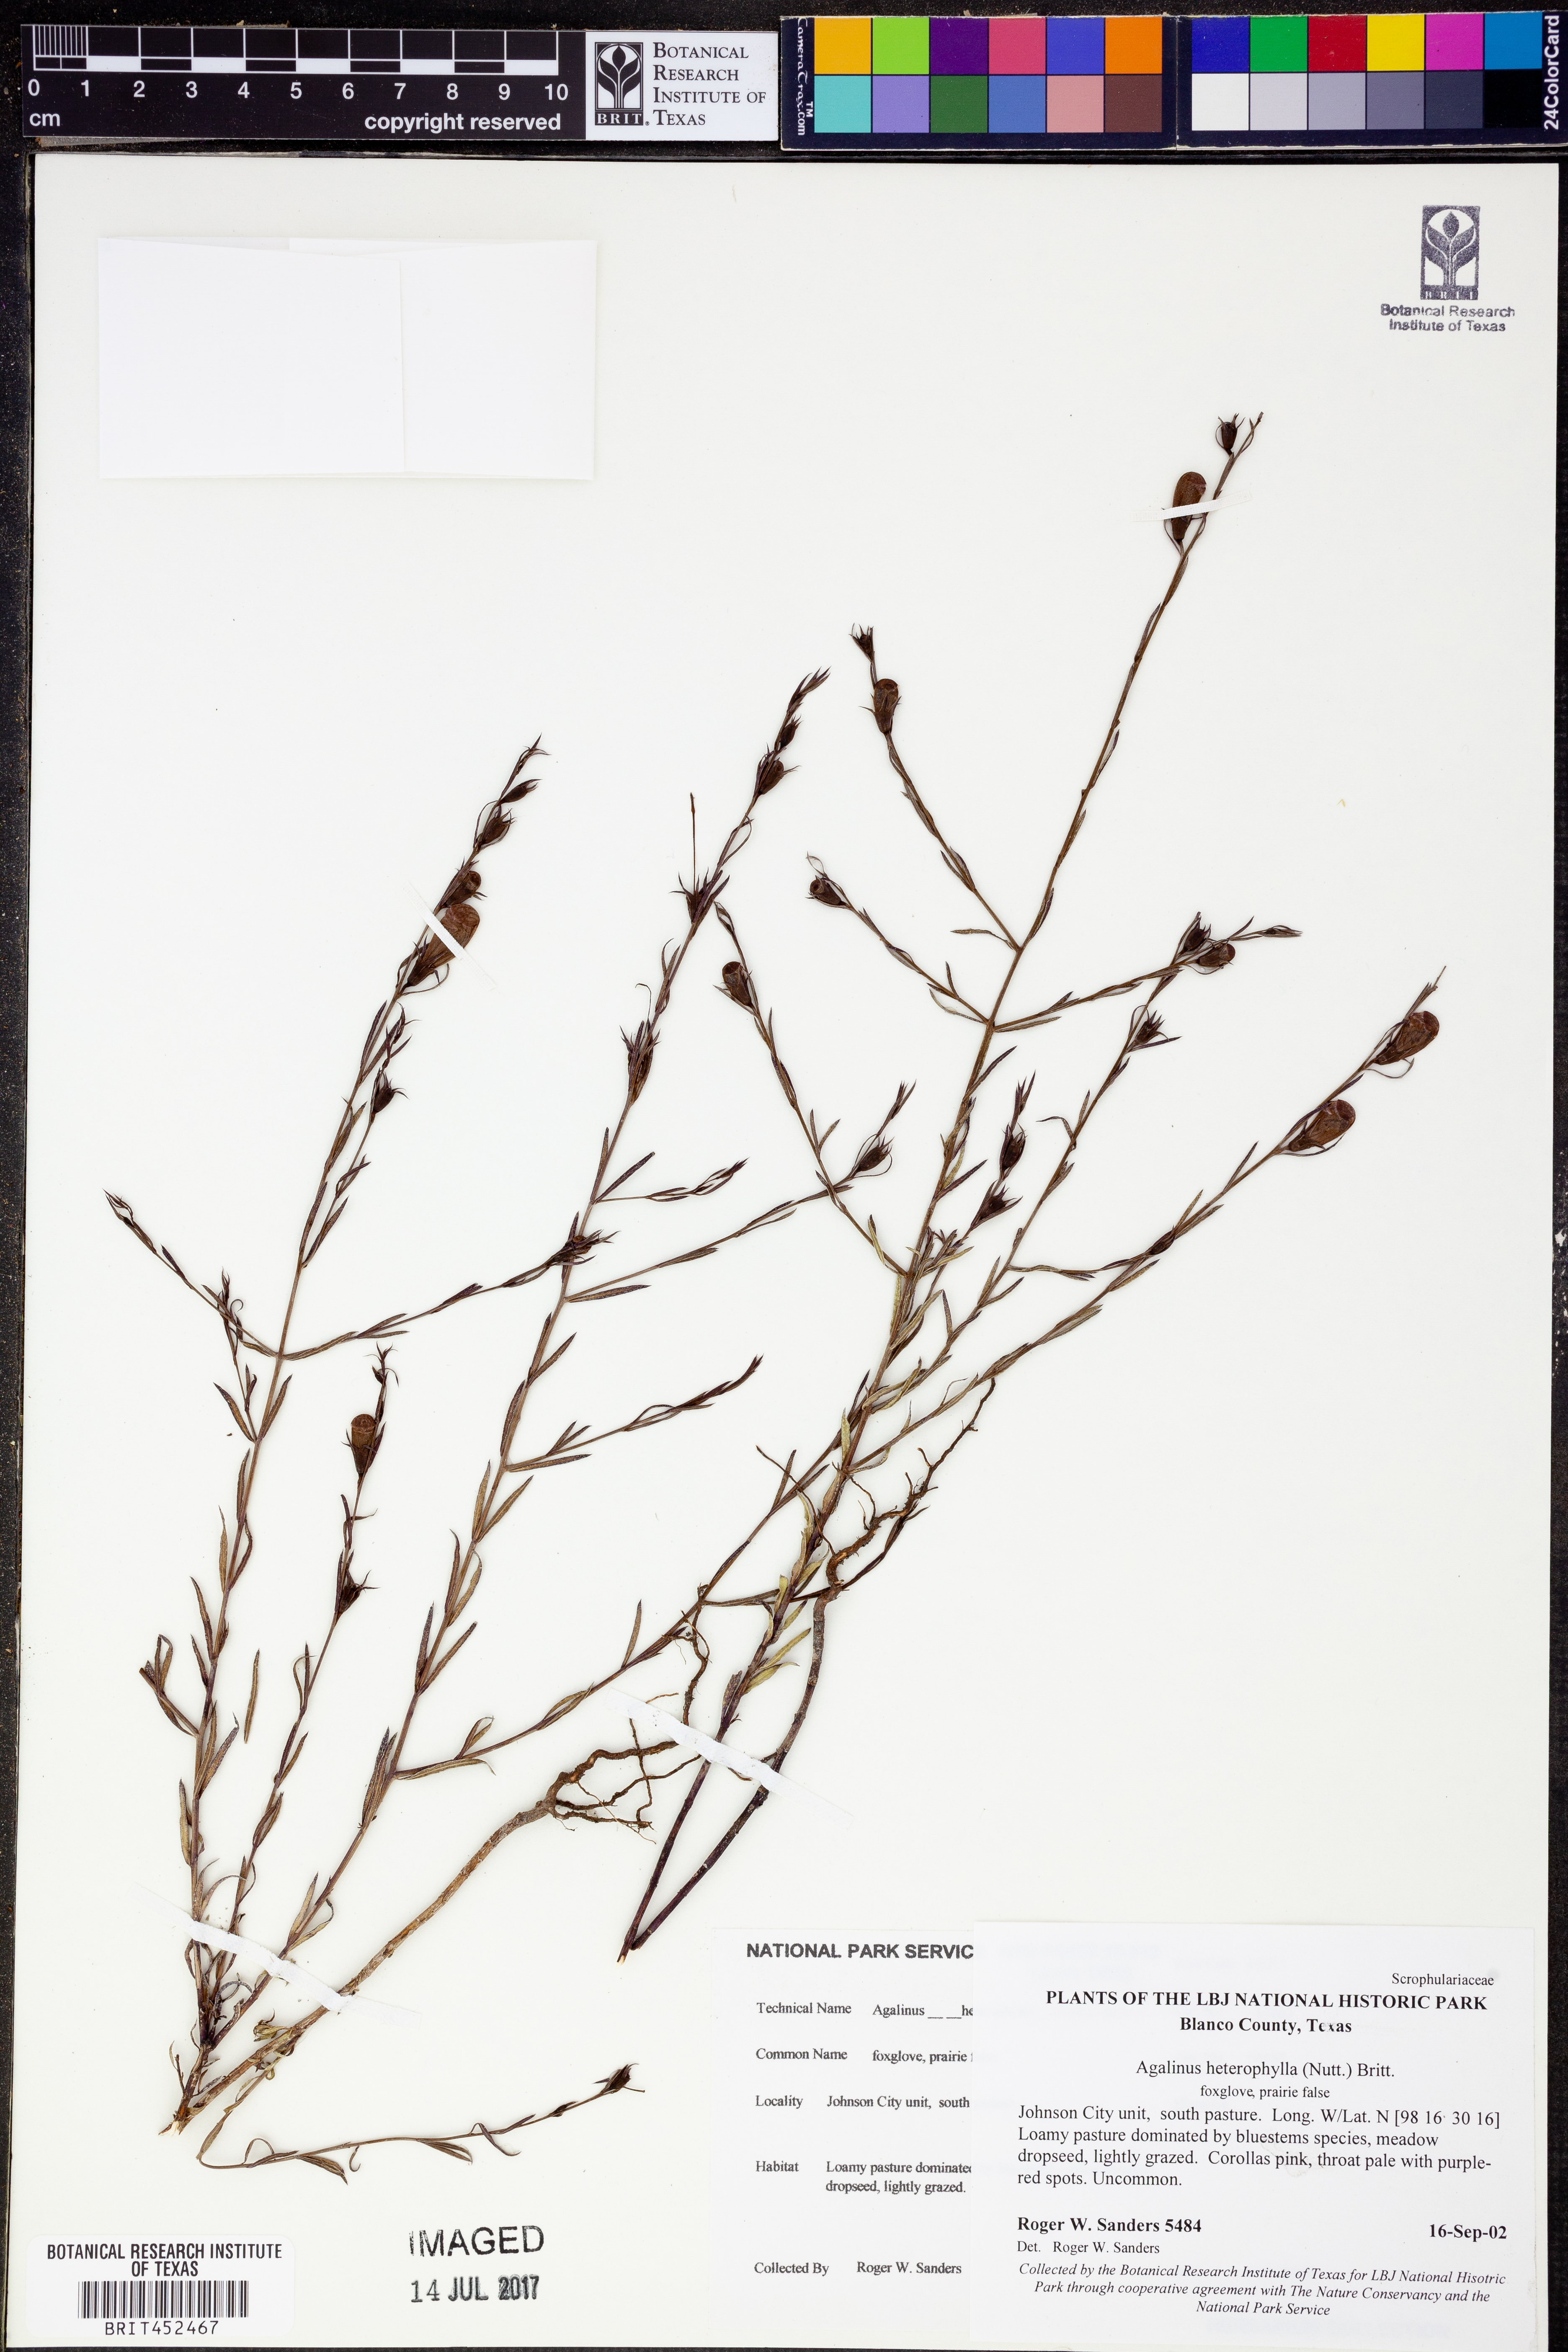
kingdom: Plantae
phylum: Tracheophyta
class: Magnoliopsida
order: Lamiales
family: Orobanchaceae
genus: Agalinis
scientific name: Agalinis heterophylla
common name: Prairie agalinis
